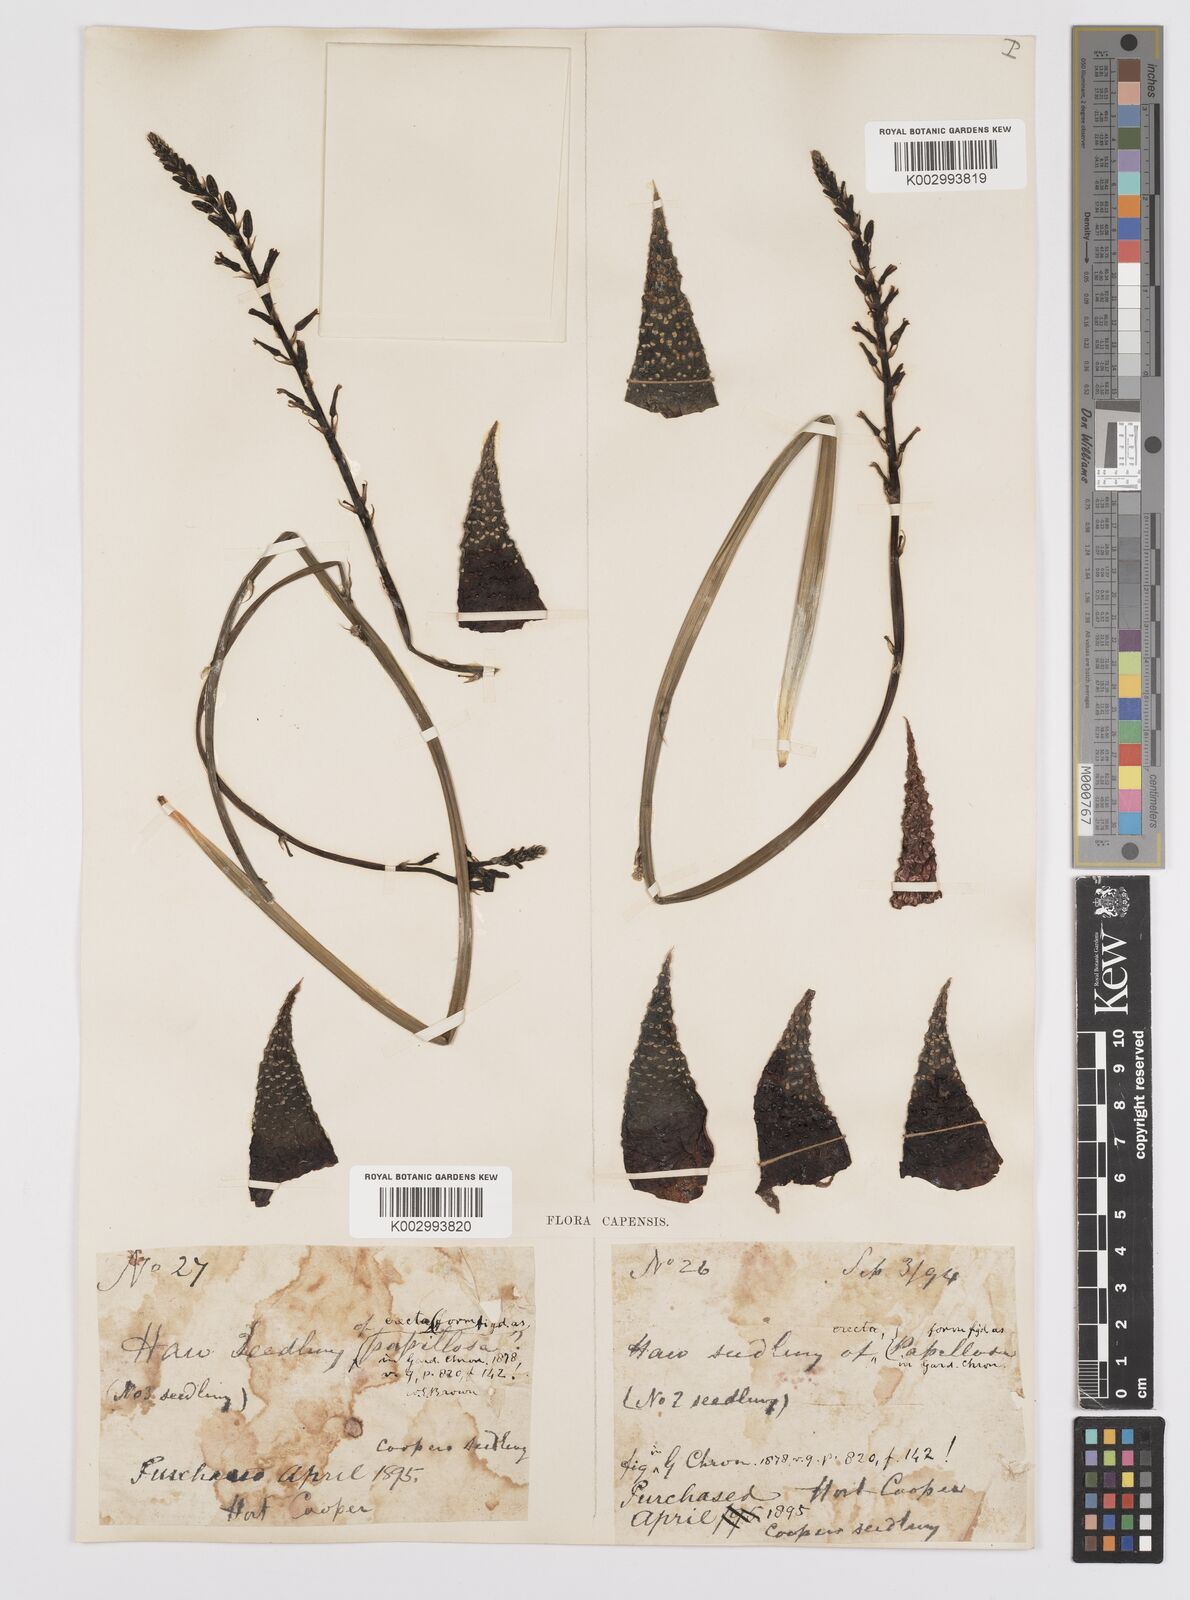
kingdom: Plantae
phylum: Tracheophyta
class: Liliopsida
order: Asparagales
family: Asphodelaceae
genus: Tulista
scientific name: Tulista pumila
